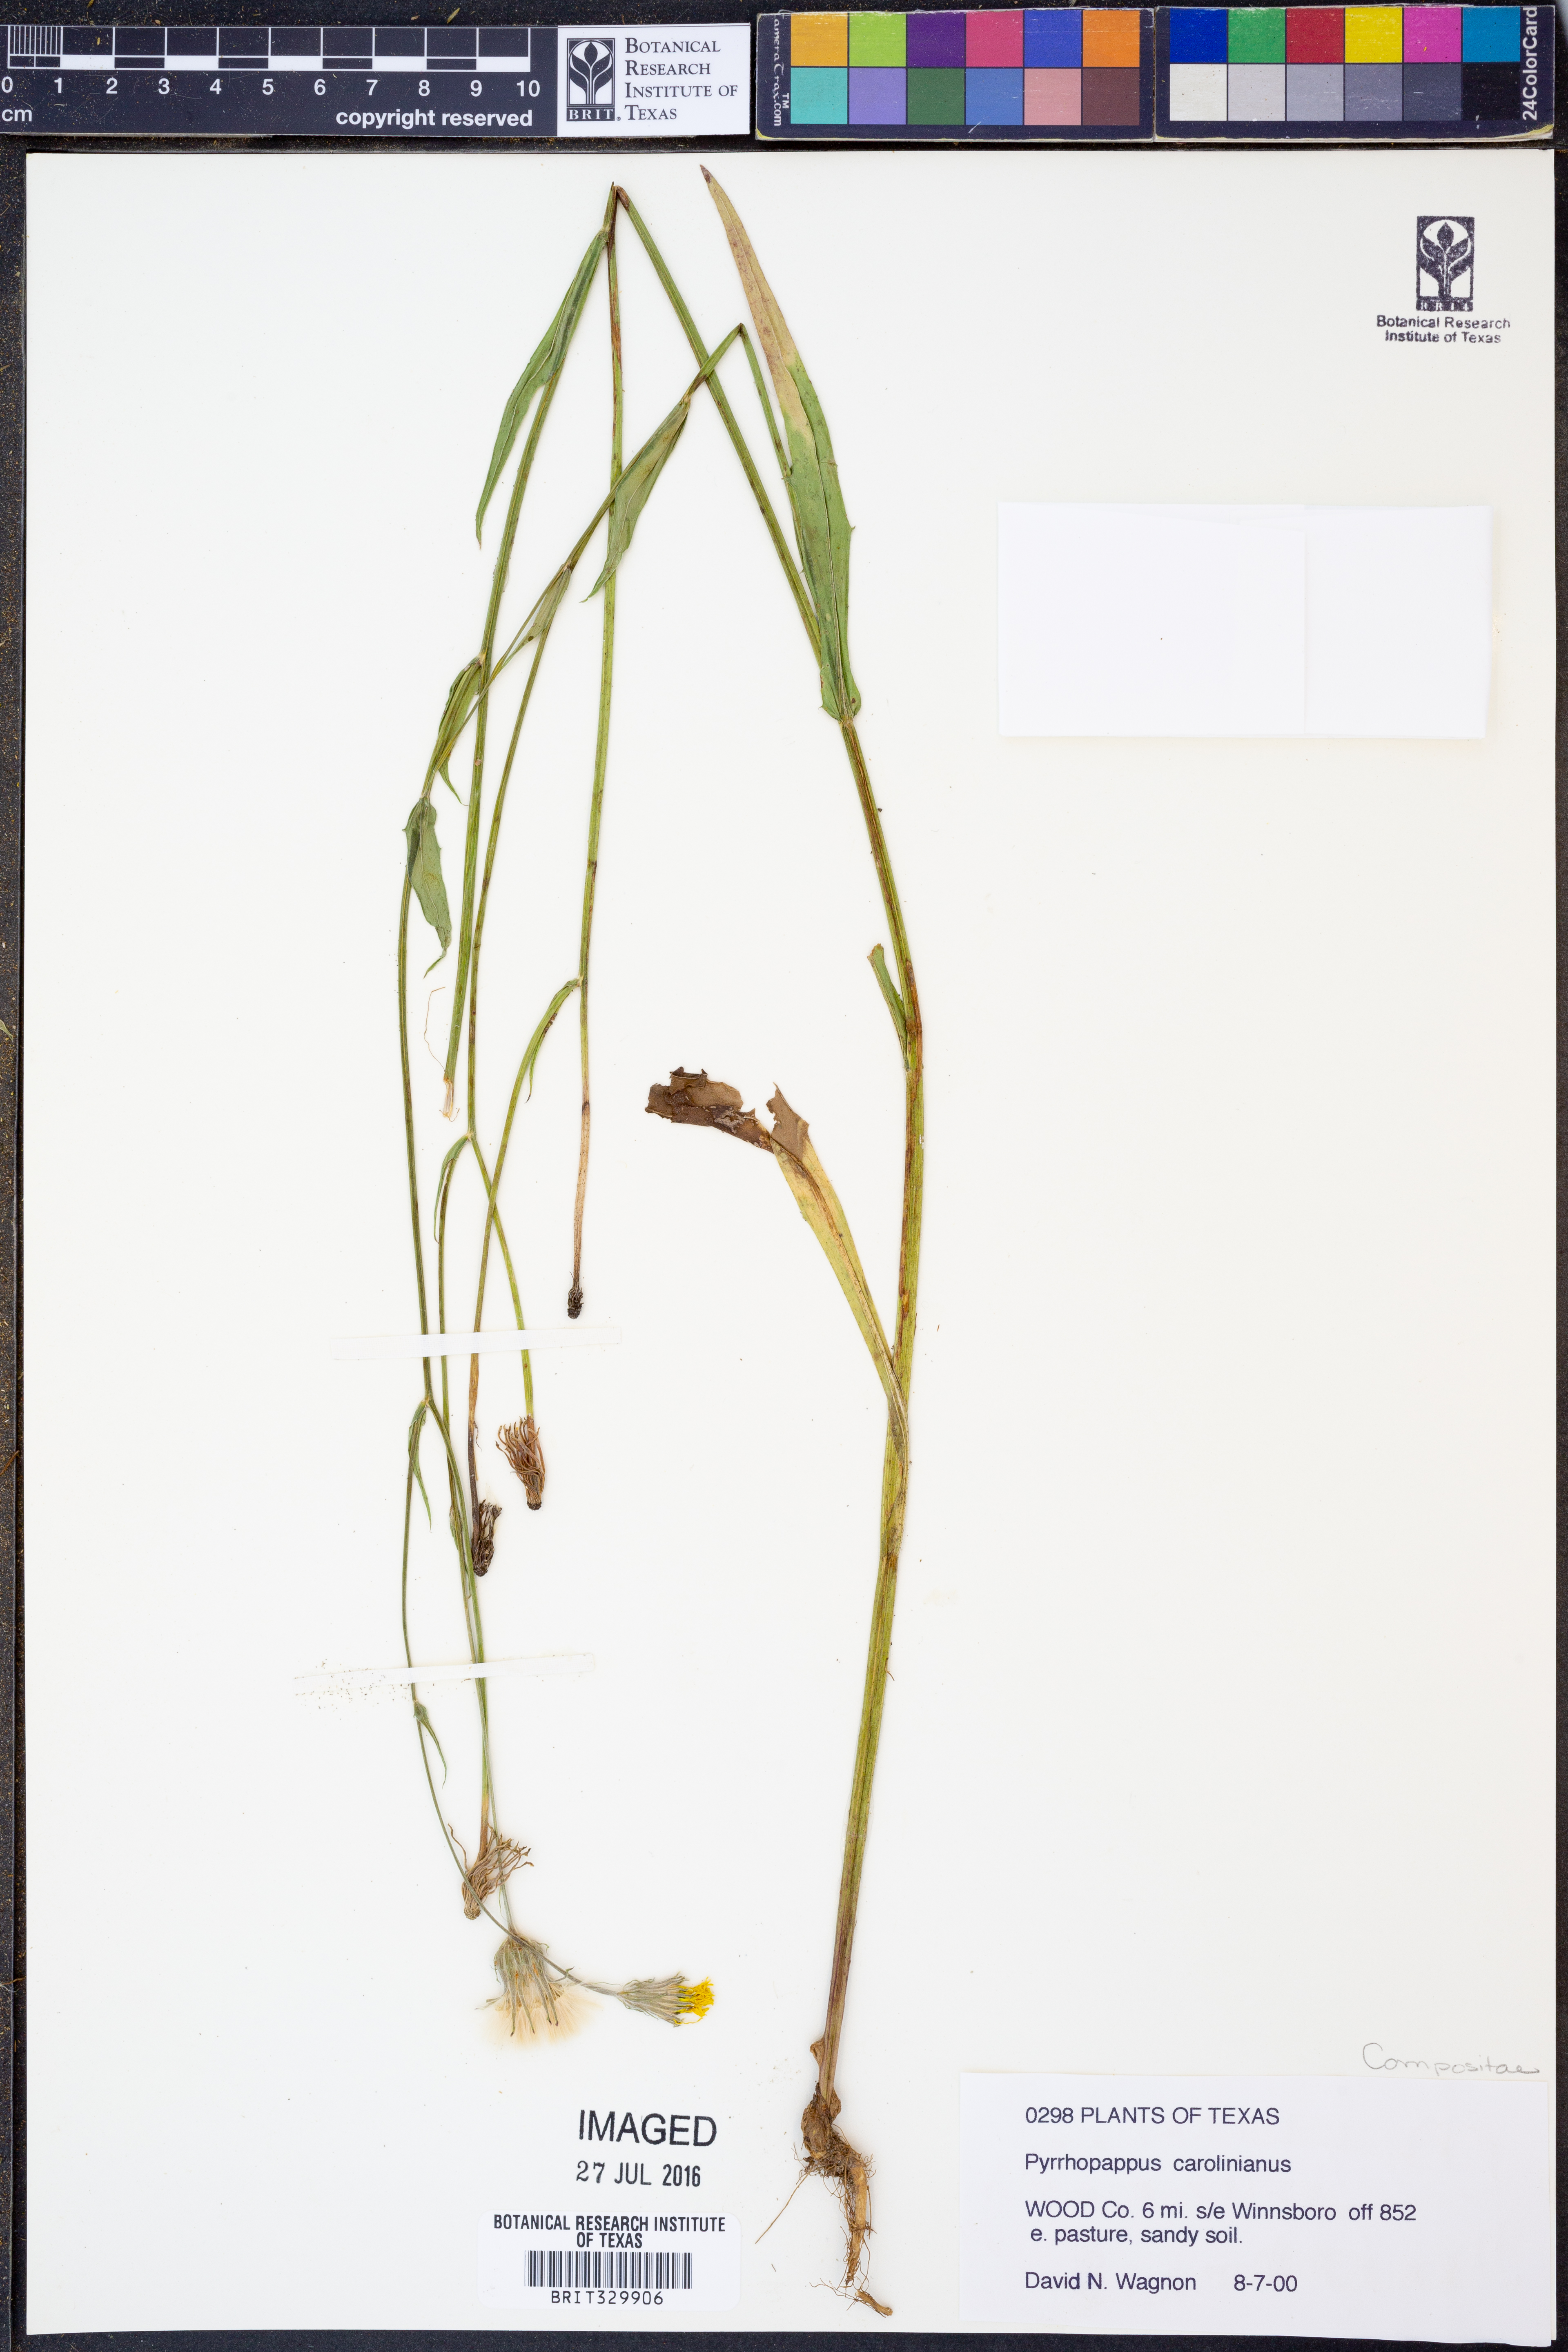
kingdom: Plantae
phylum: Tracheophyta
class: Magnoliopsida
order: Asterales
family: Asteraceae
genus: Pyrrhopappus
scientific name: Pyrrhopappus carolinianus
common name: Carolina desert-chicory
